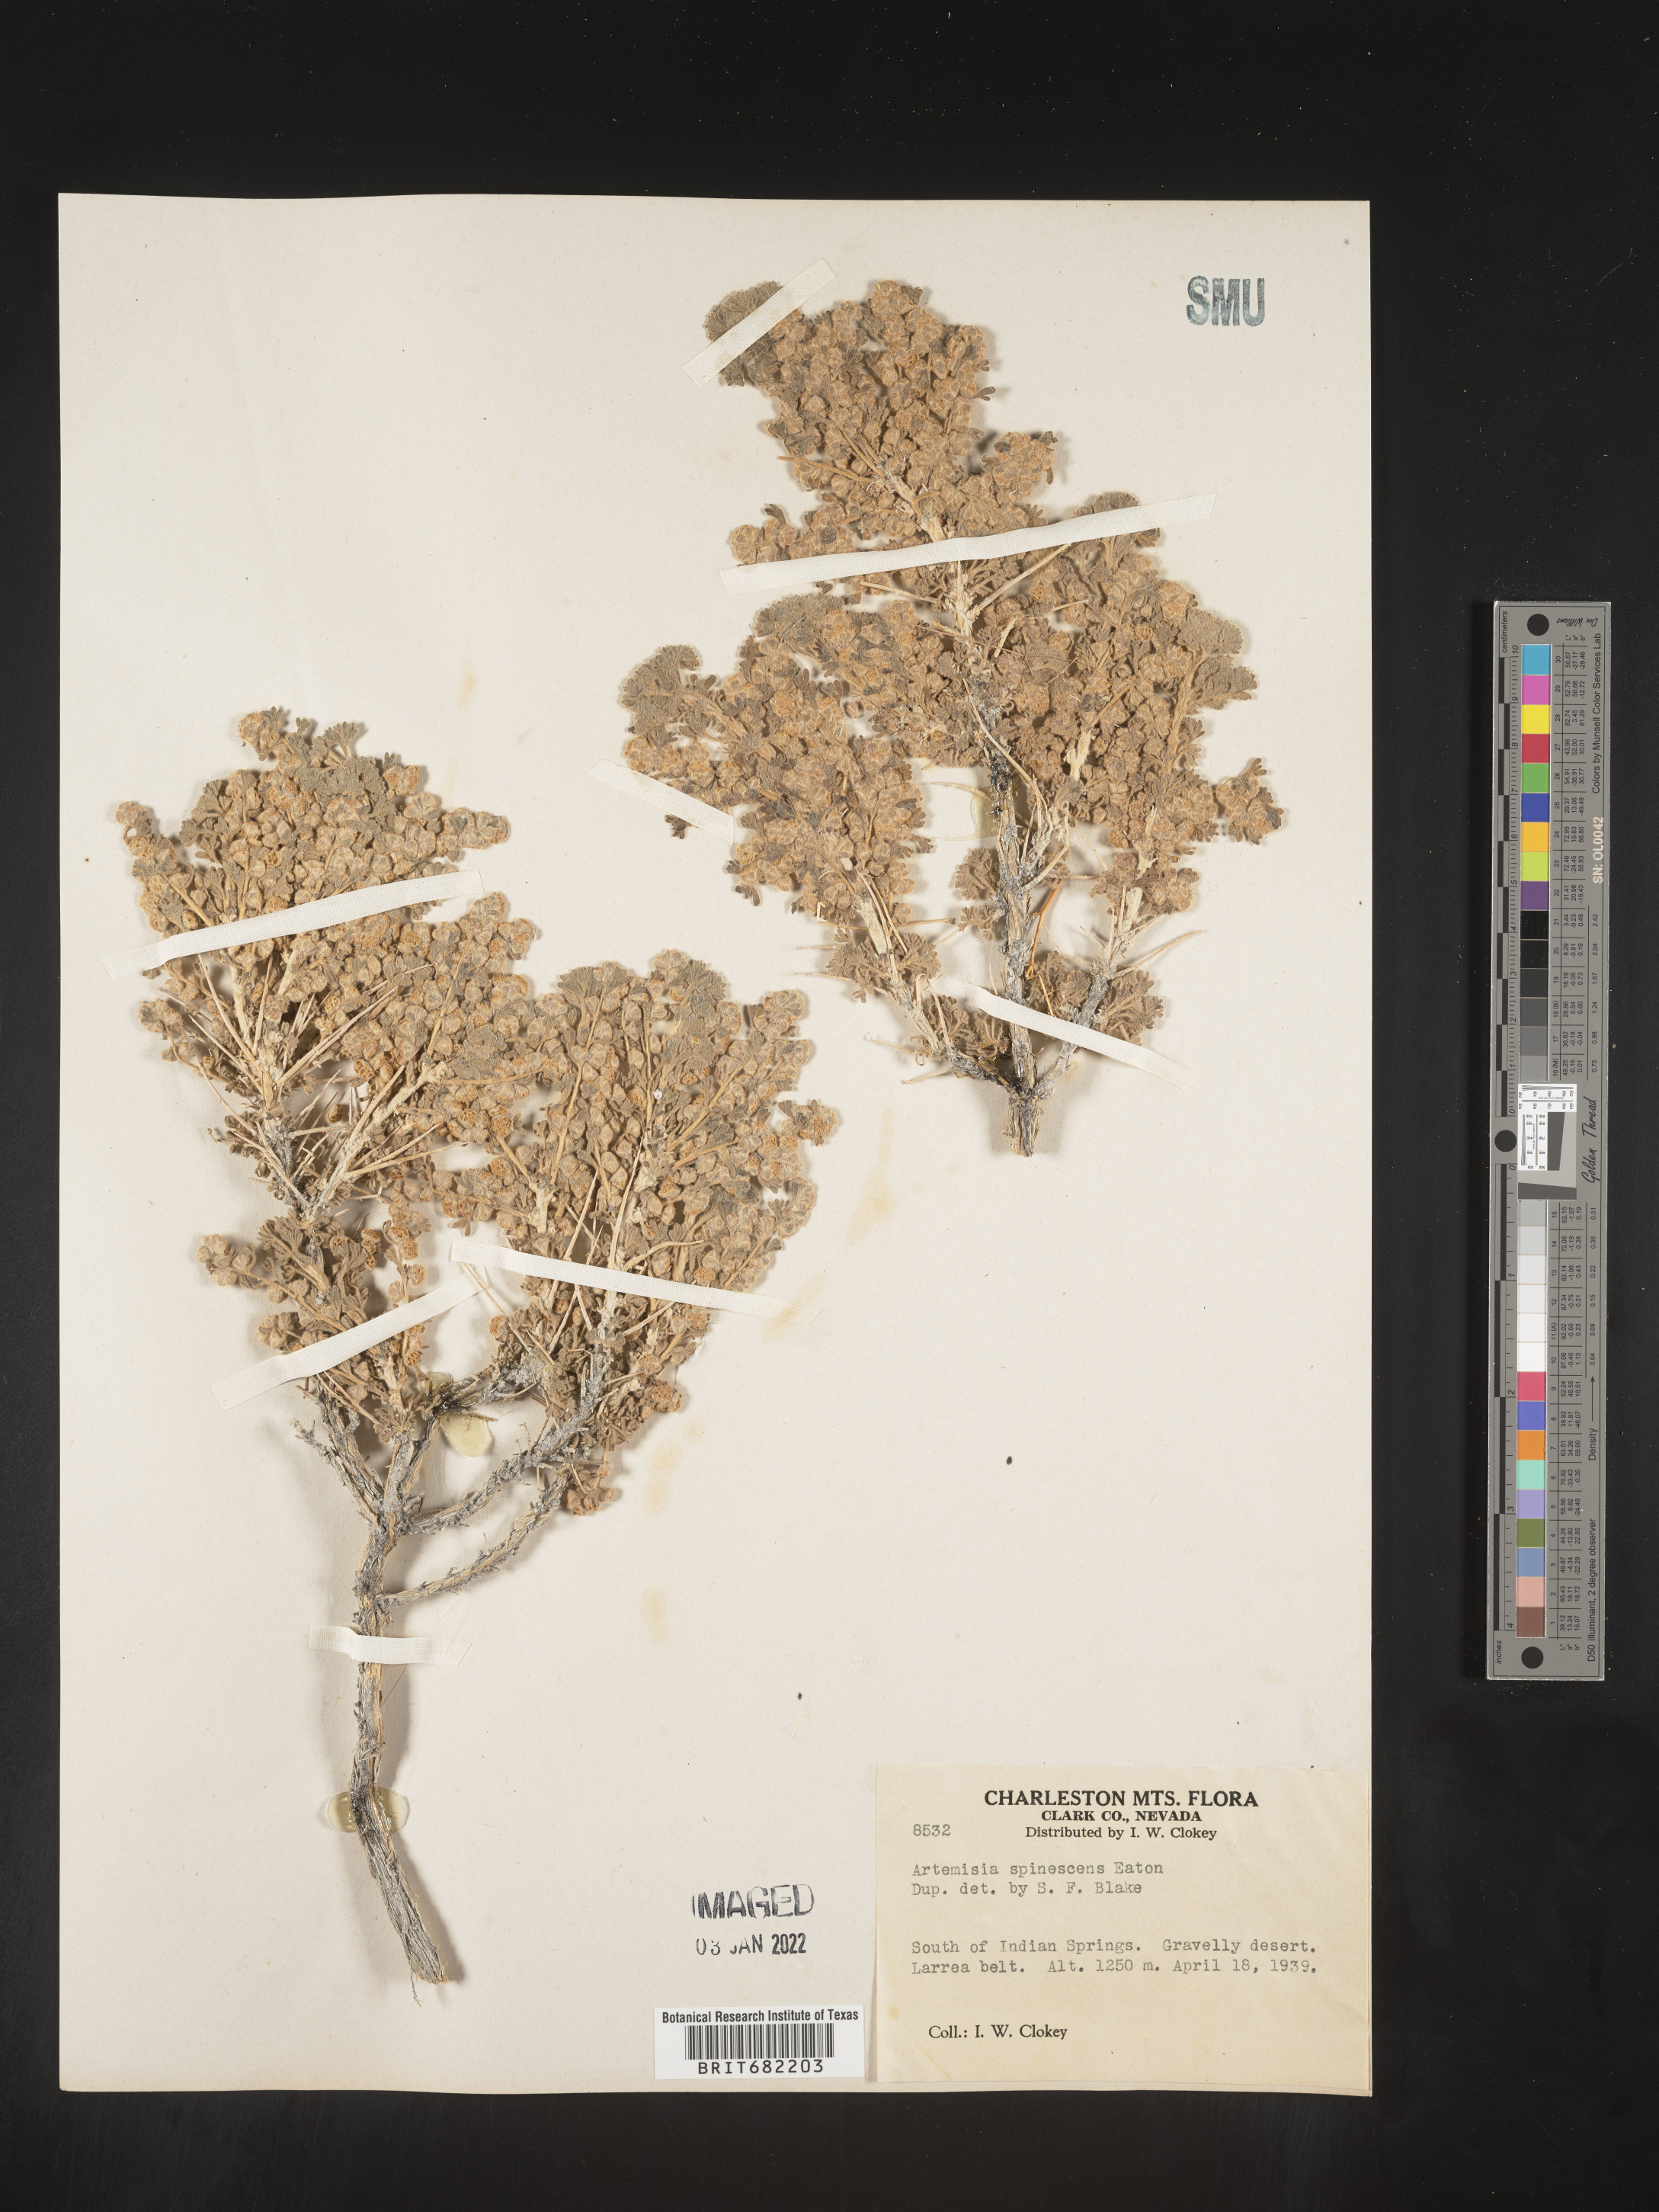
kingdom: Plantae
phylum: Tracheophyta
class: Magnoliopsida
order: Asterales
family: Asteraceae
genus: Artemisia
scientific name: Artemisia spinescens
